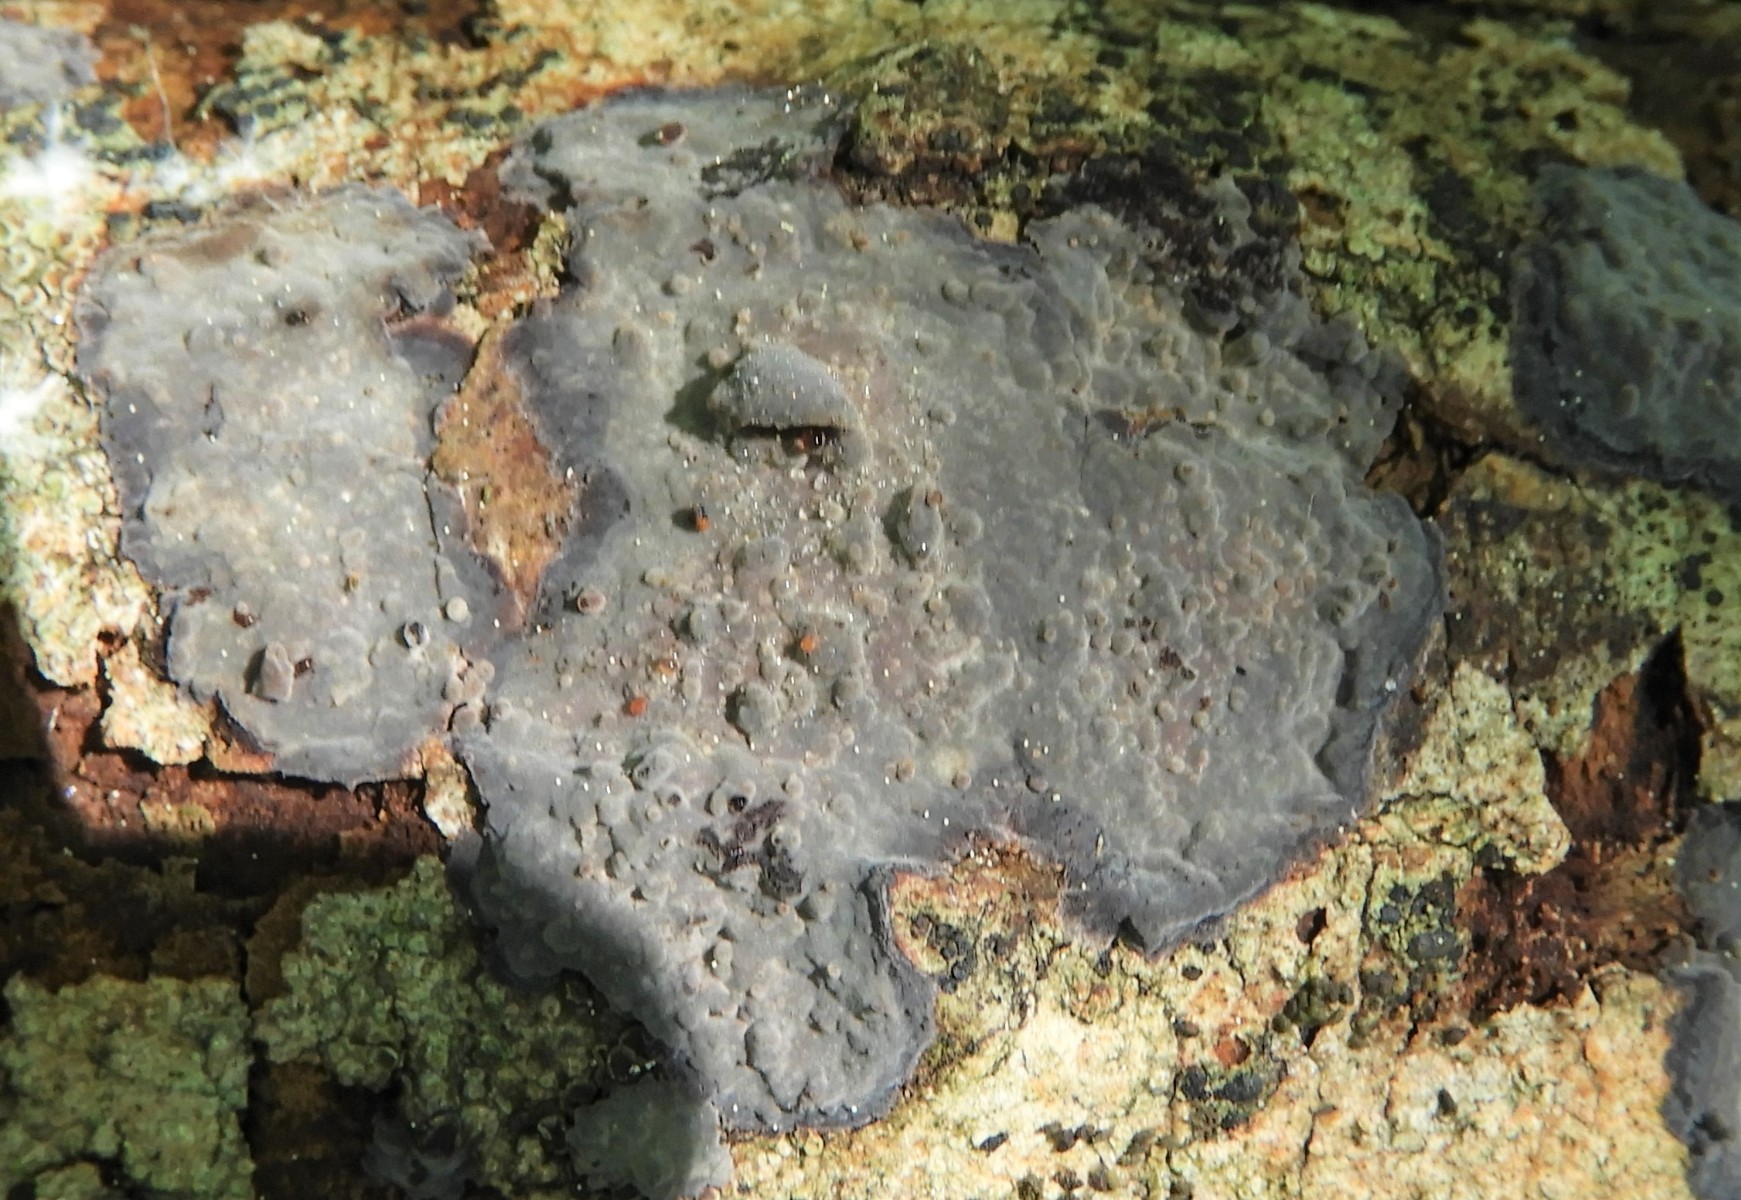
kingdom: Fungi
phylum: Basidiomycota
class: Agaricomycetes
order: Russulales
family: Peniophoraceae
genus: Peniophora
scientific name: Peniophora limitata
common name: mørkrandet voksskind
